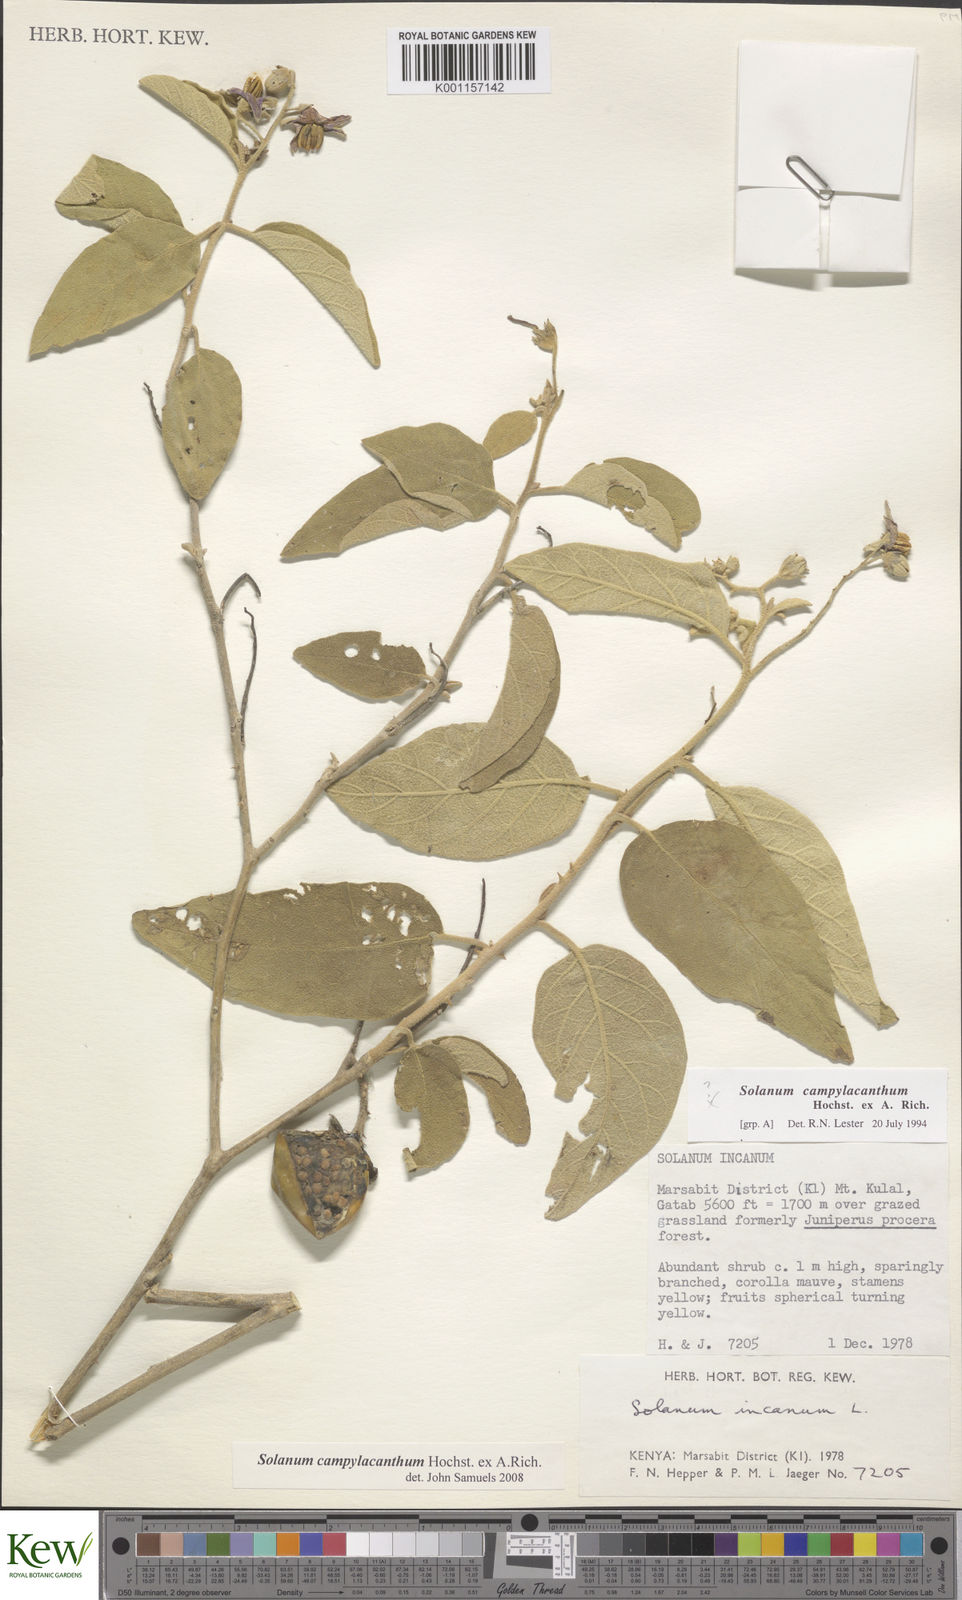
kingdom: Plantae
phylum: Tracheophyta
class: Magnoliopsida
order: Solanales
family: Solanaceae
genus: Solanum
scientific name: Solanum campylacanthum
